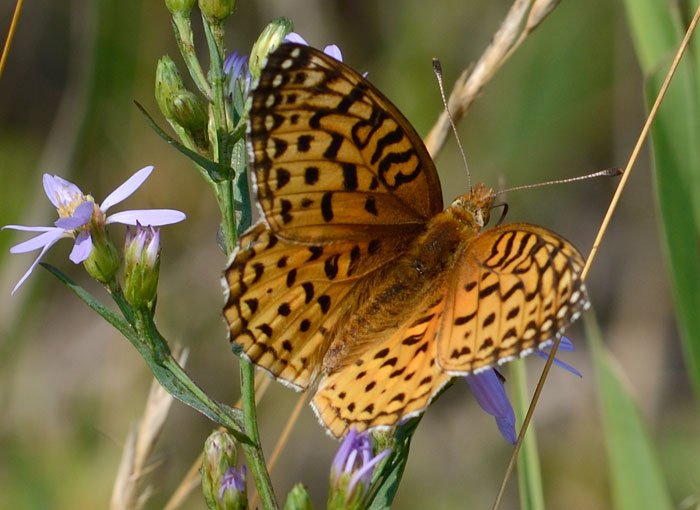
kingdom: Animalia
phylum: Arthropoda
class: Insecta
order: Lepidoptera
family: Nymphalidae
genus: Speyeria
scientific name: Speyeria aphrodite
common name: Aphrodite Fritillary
